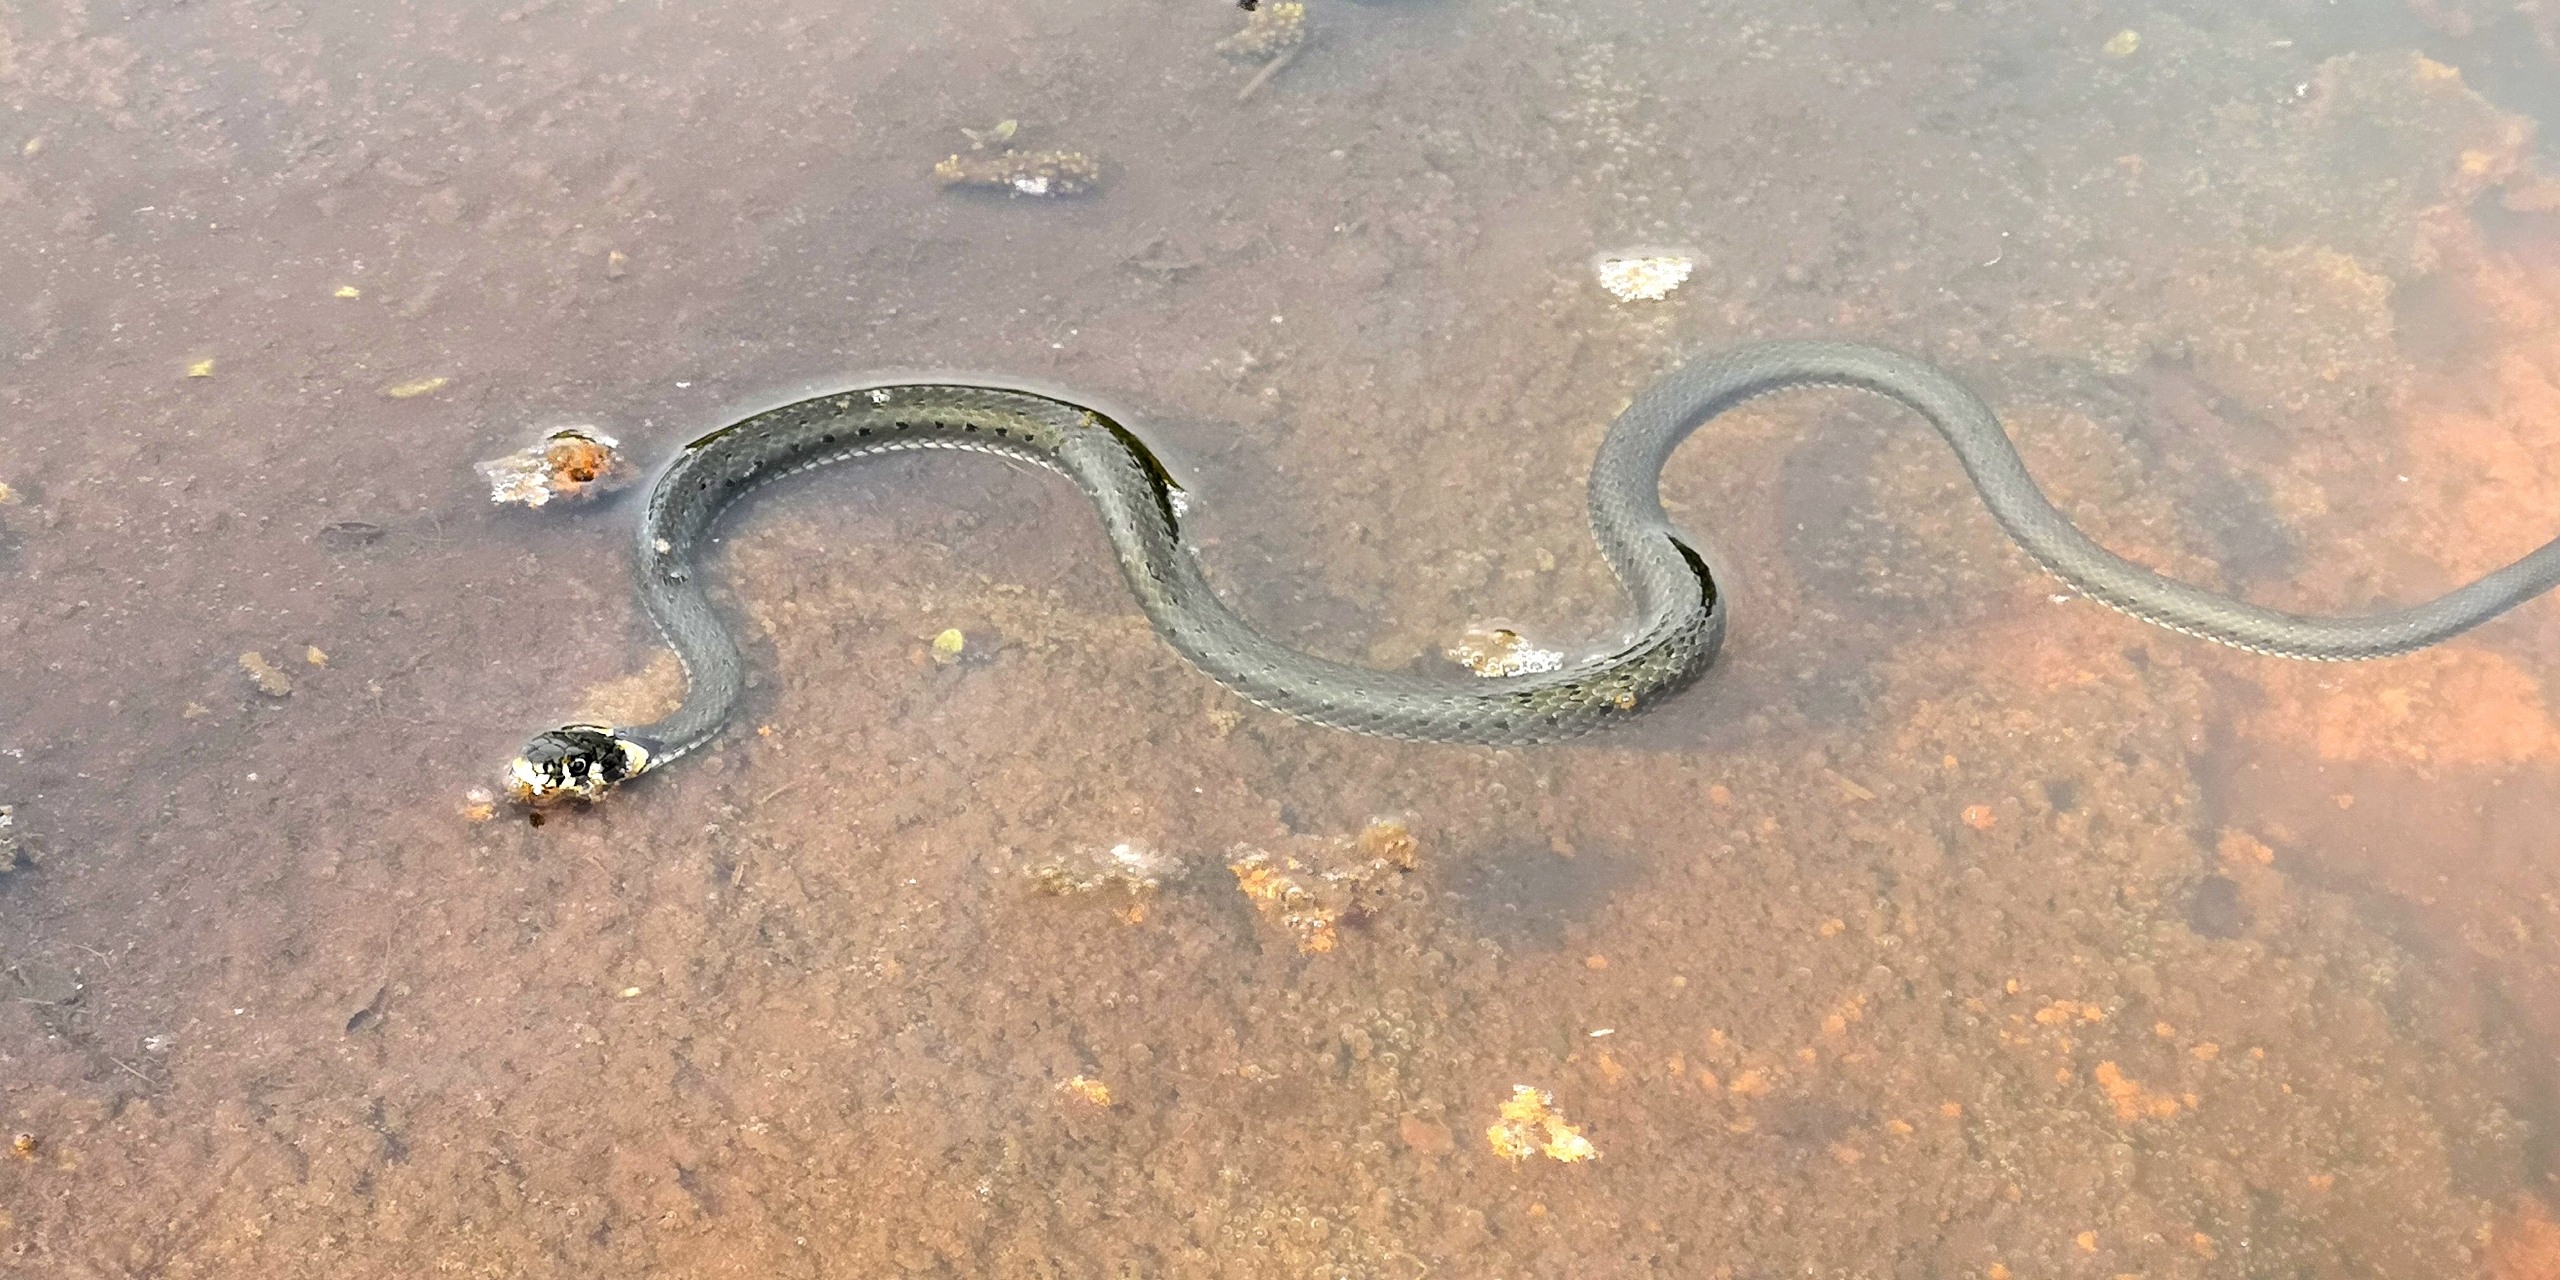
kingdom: Animalia
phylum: Chordata
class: Squamata
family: Colubridae
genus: Natrix
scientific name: Natrix natrix
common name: Snog
